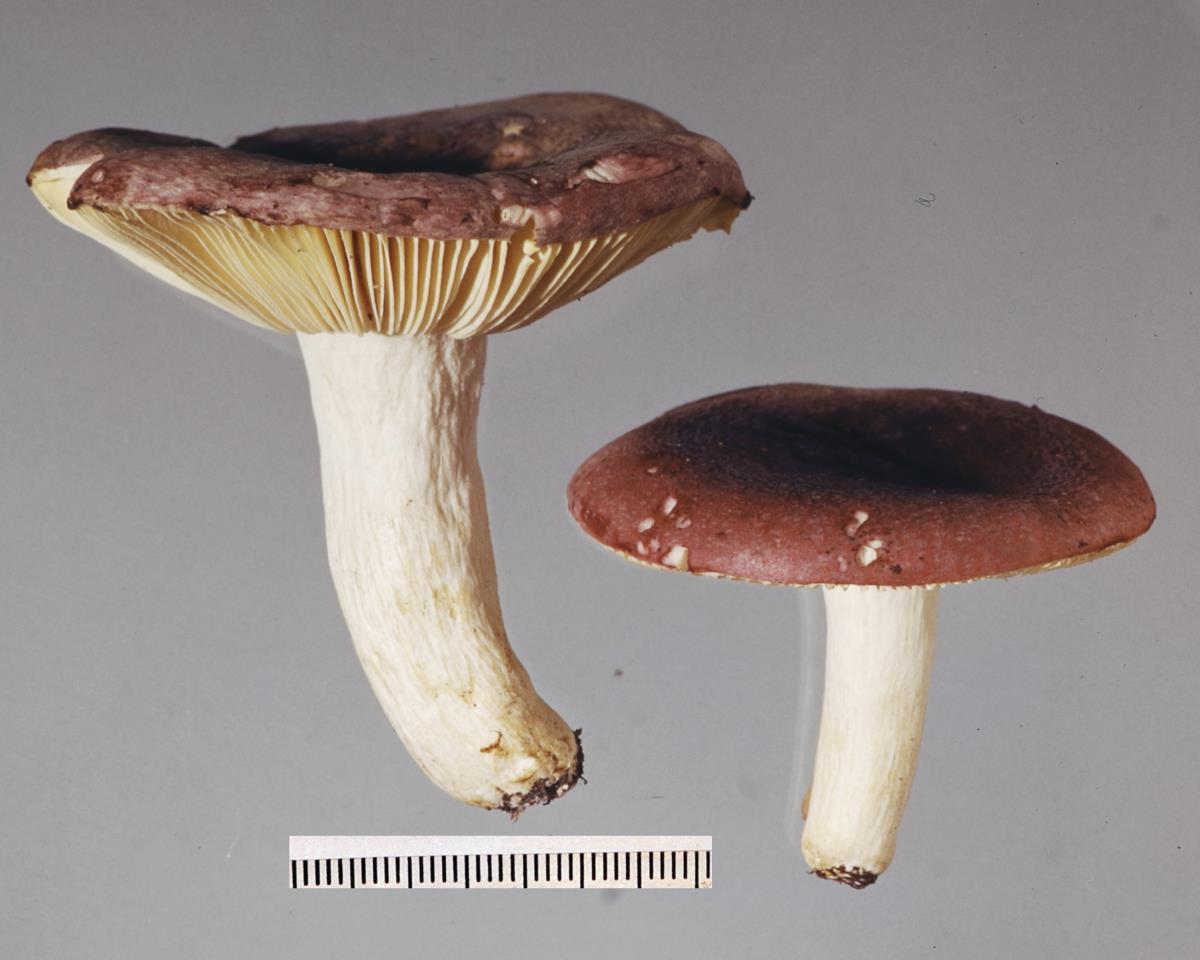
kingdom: Fungi
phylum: Basidiomycota
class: Agaricomycetes
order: Russulales
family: Russulaceae
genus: Russula
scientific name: Russula subvinosa
